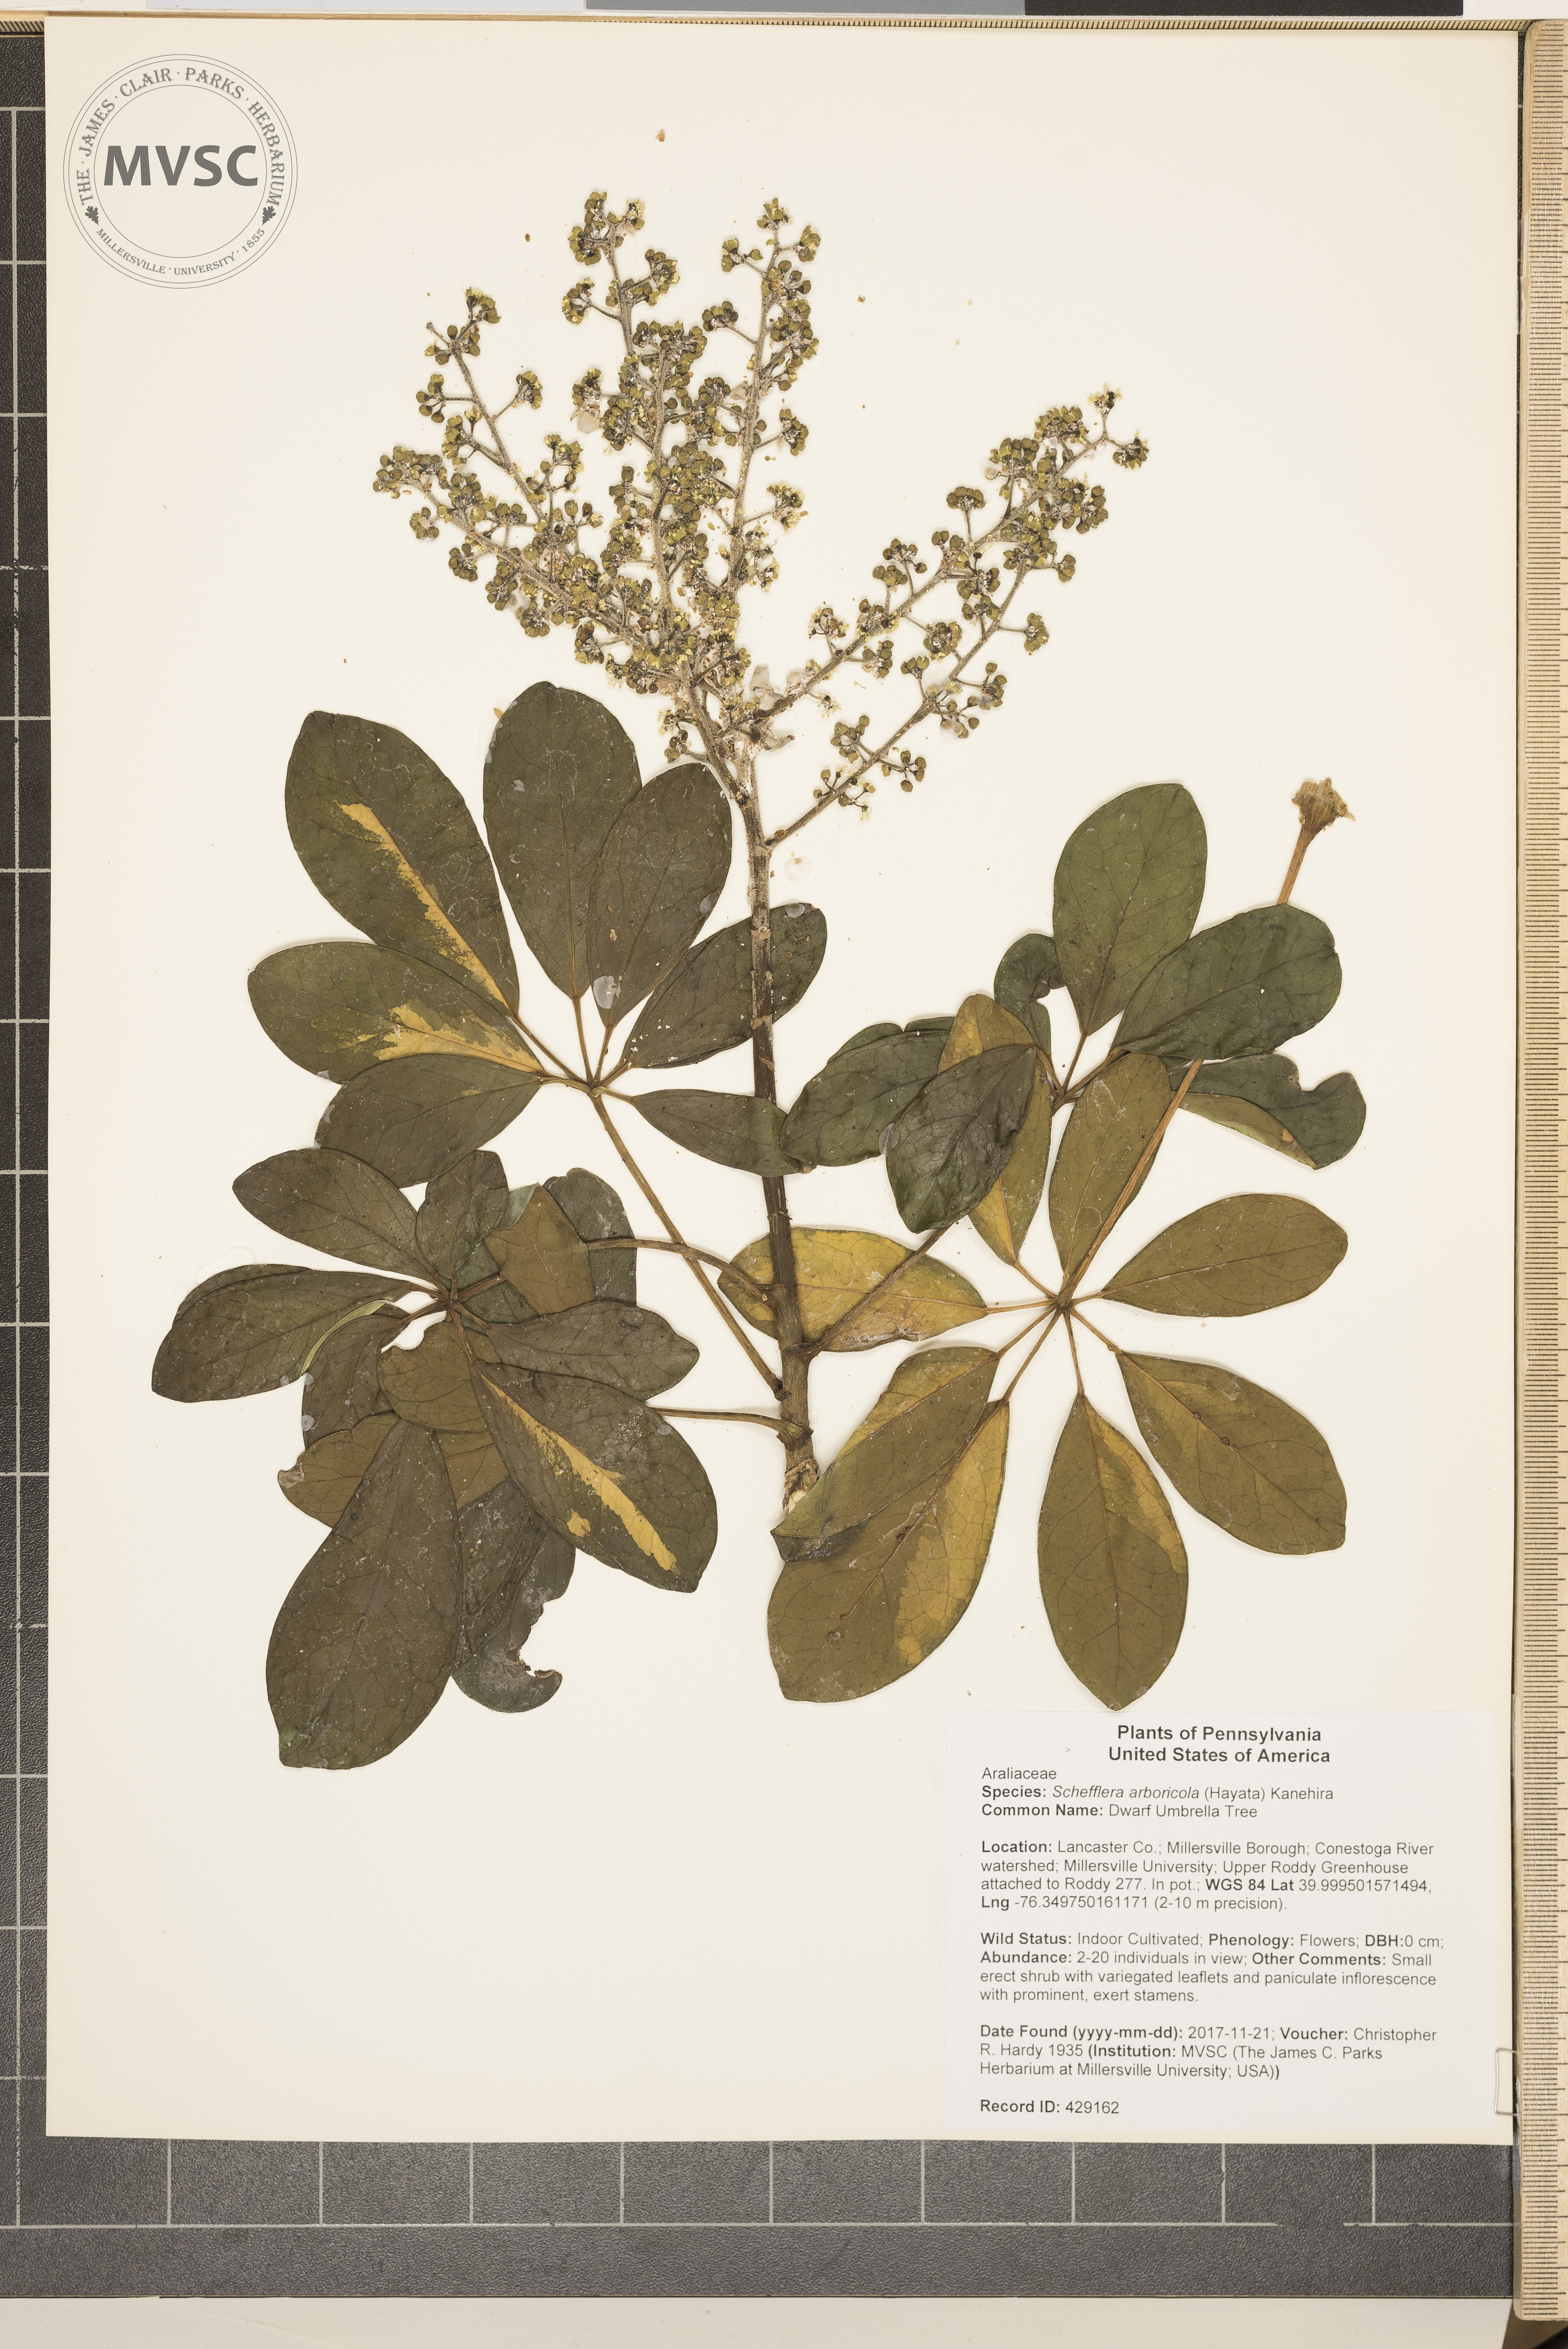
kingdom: Plantae
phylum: Tracheophyta
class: Magnoliopsida
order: Apiales
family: Araliaceae
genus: Heptapleurum
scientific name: Heptapleurum arboricola
